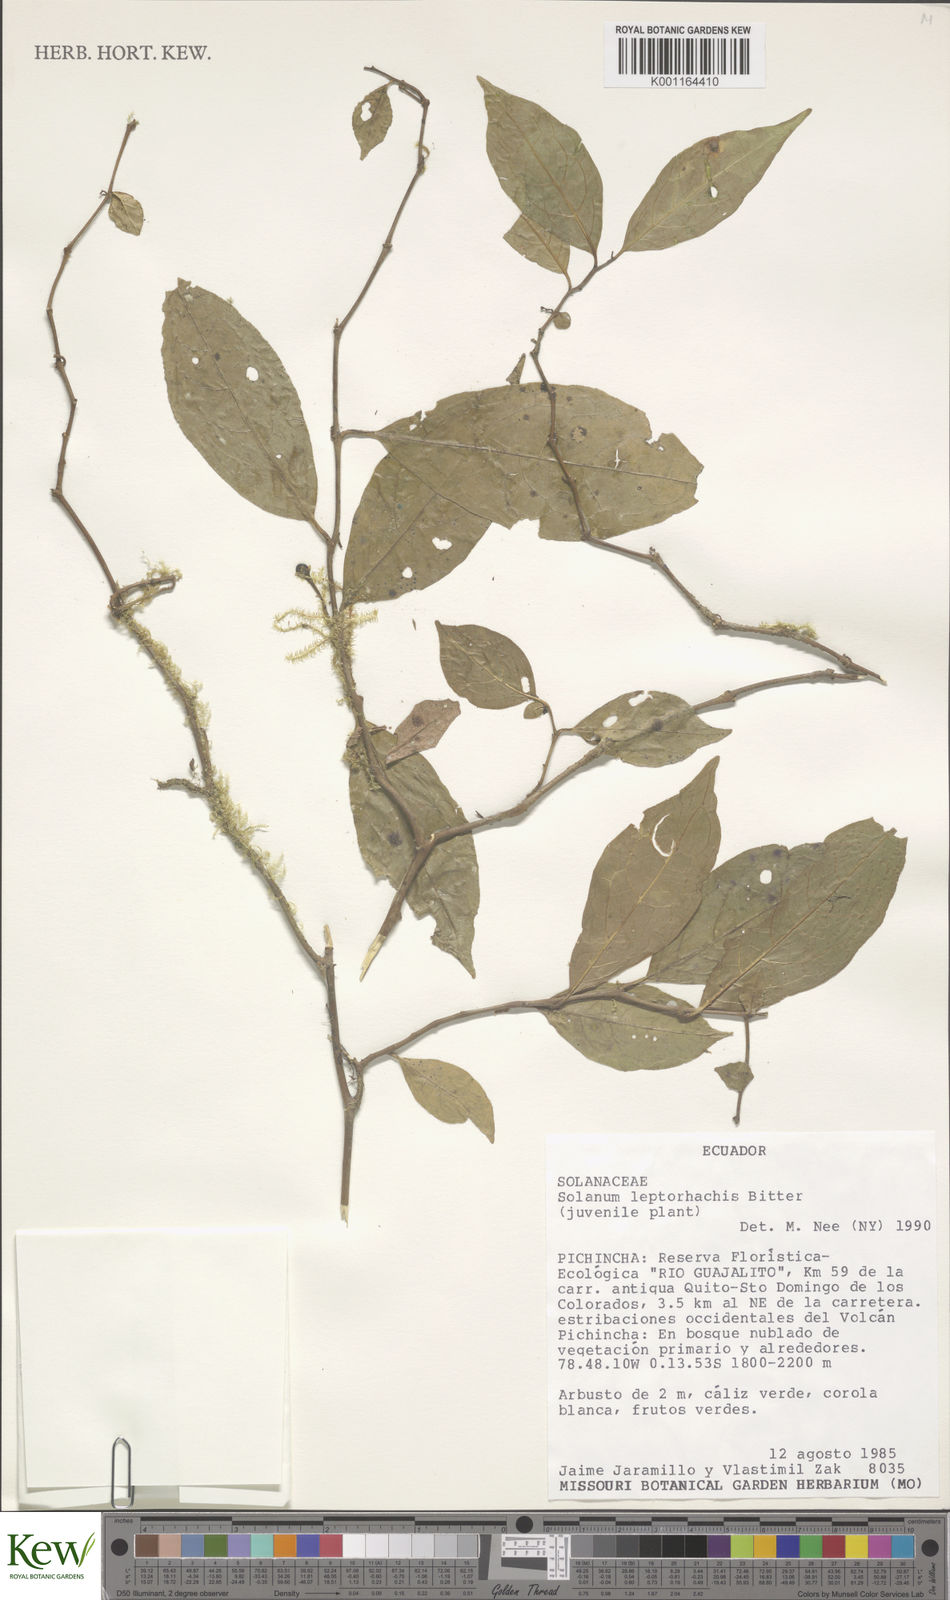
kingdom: Plantae
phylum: Tracheophyta
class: Magnoliopsida
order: Solanales
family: Solanaceae
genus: Solanum
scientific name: Solanum leptorhachis
